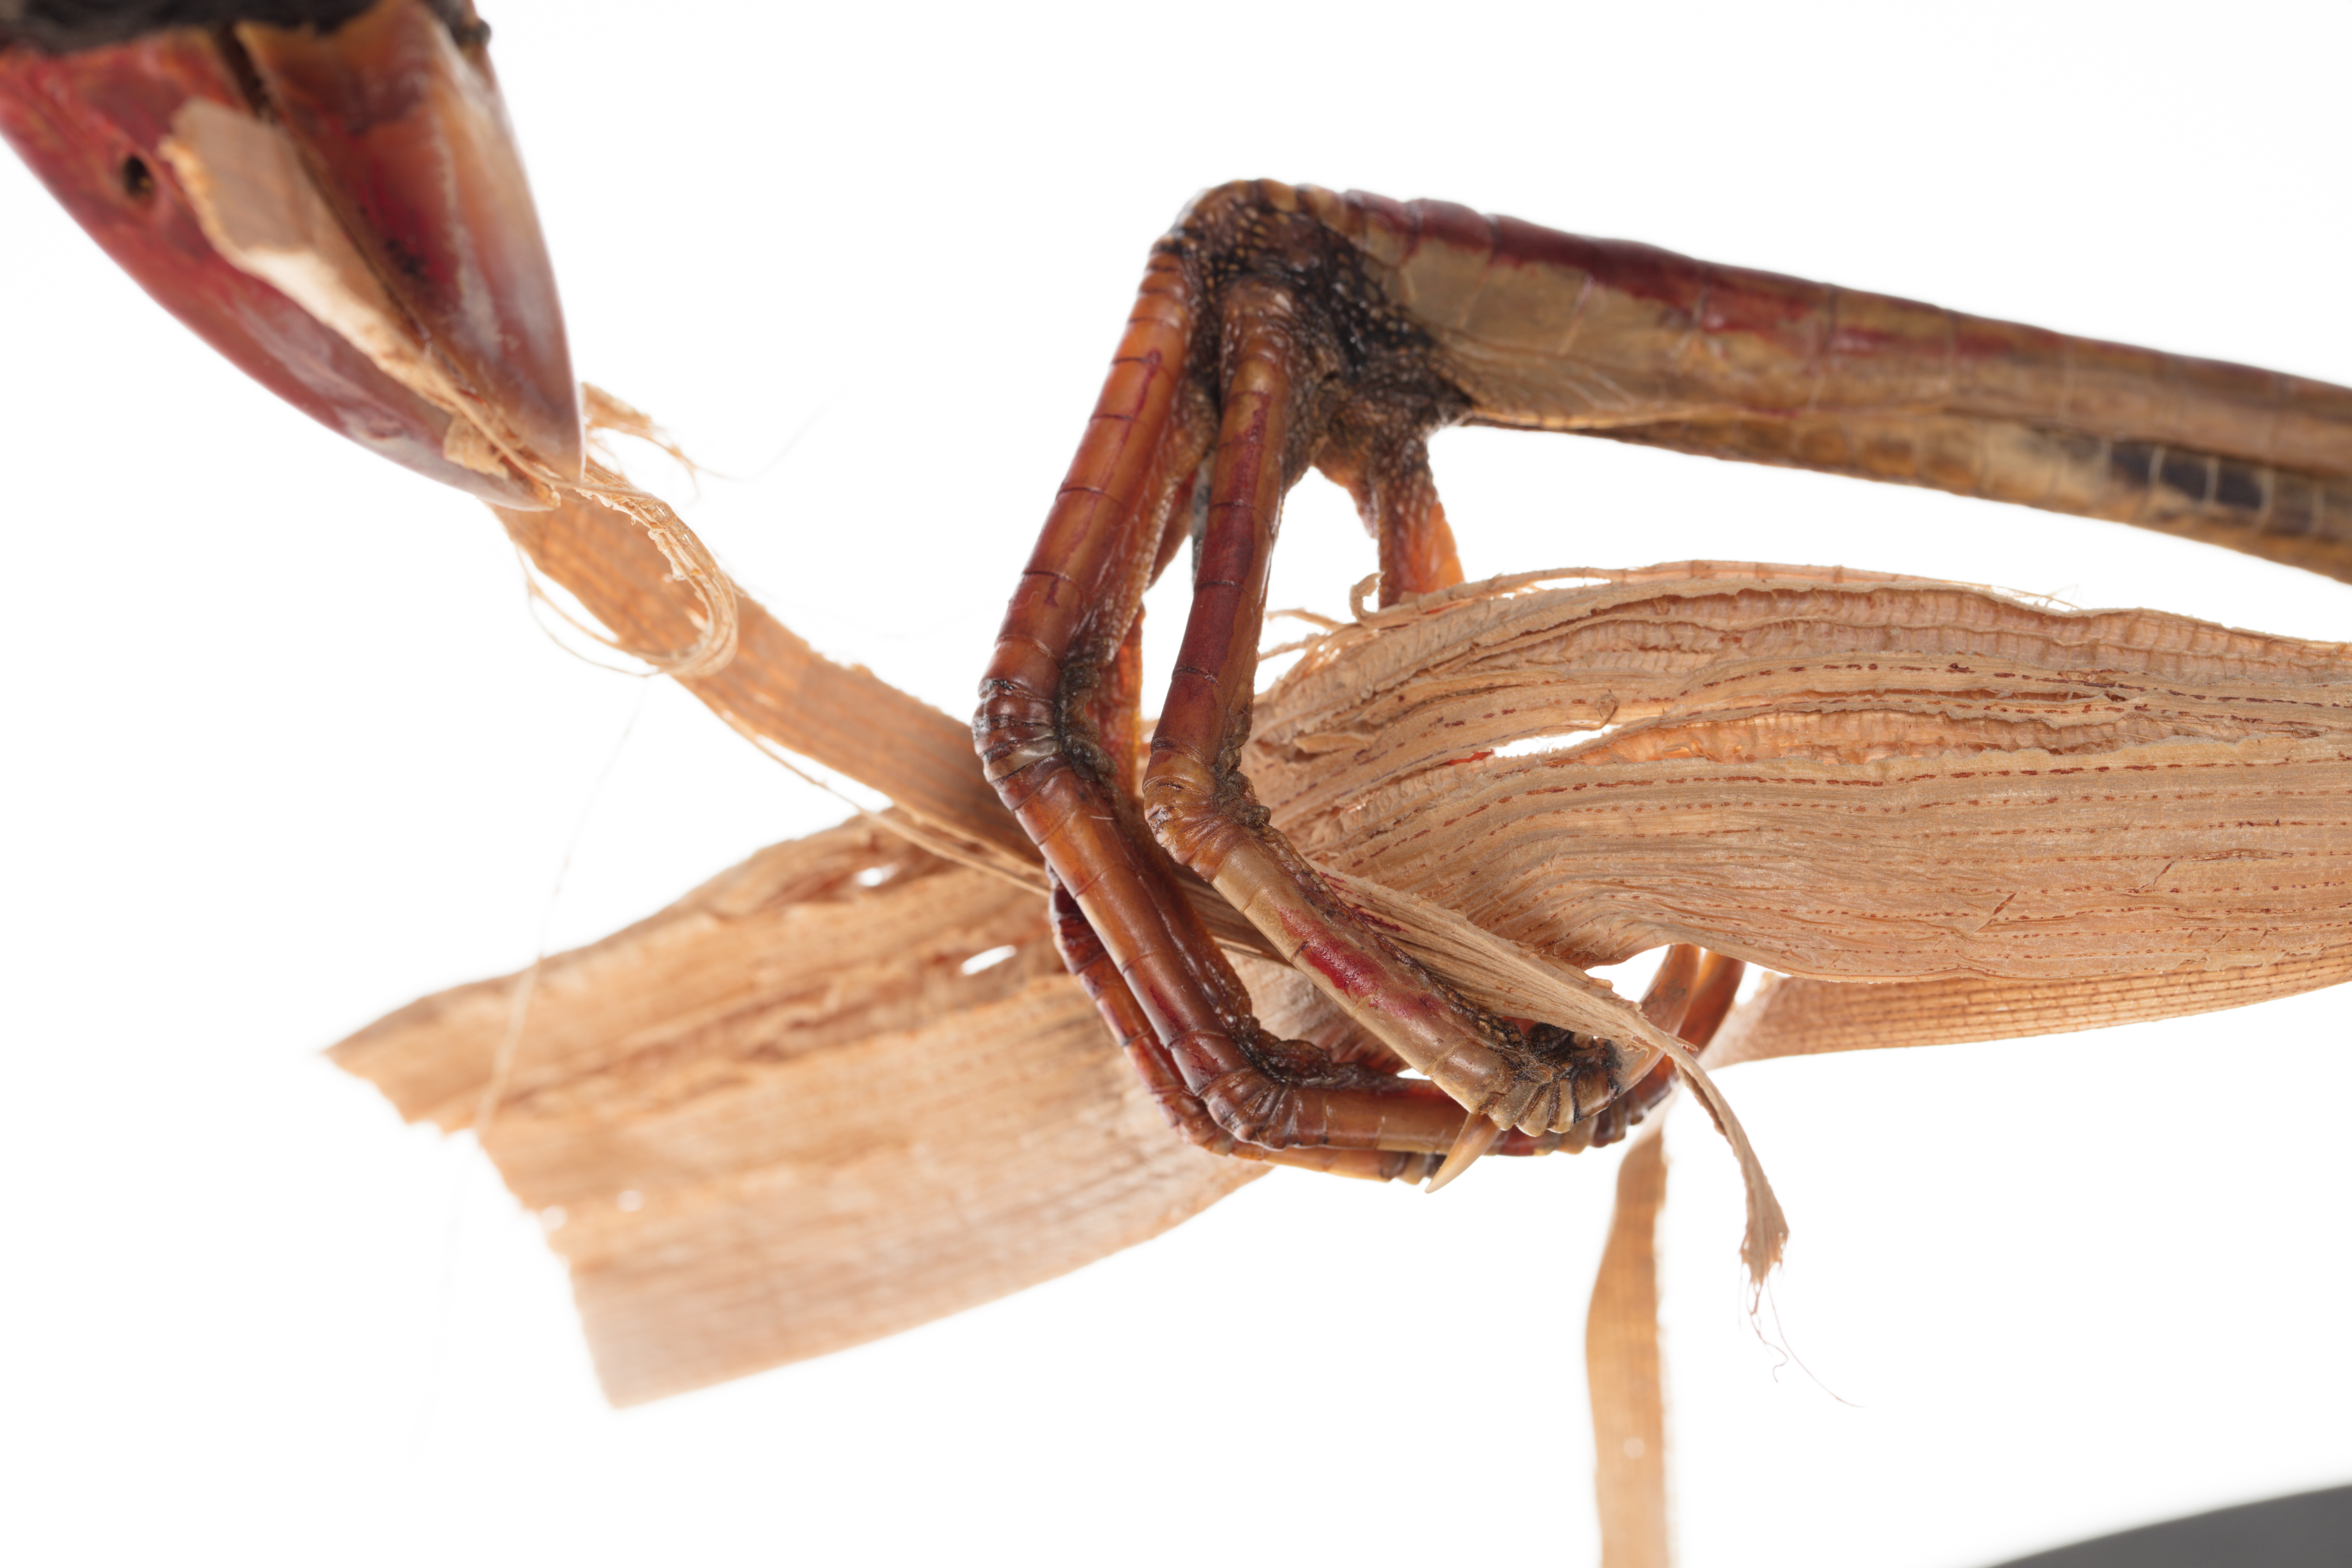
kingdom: Animalia
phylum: Chordata
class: Aves
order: Gruiformes
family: Rallidae
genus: Porphyrio
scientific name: Porphyrio melanotus
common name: Australasian swamphen
